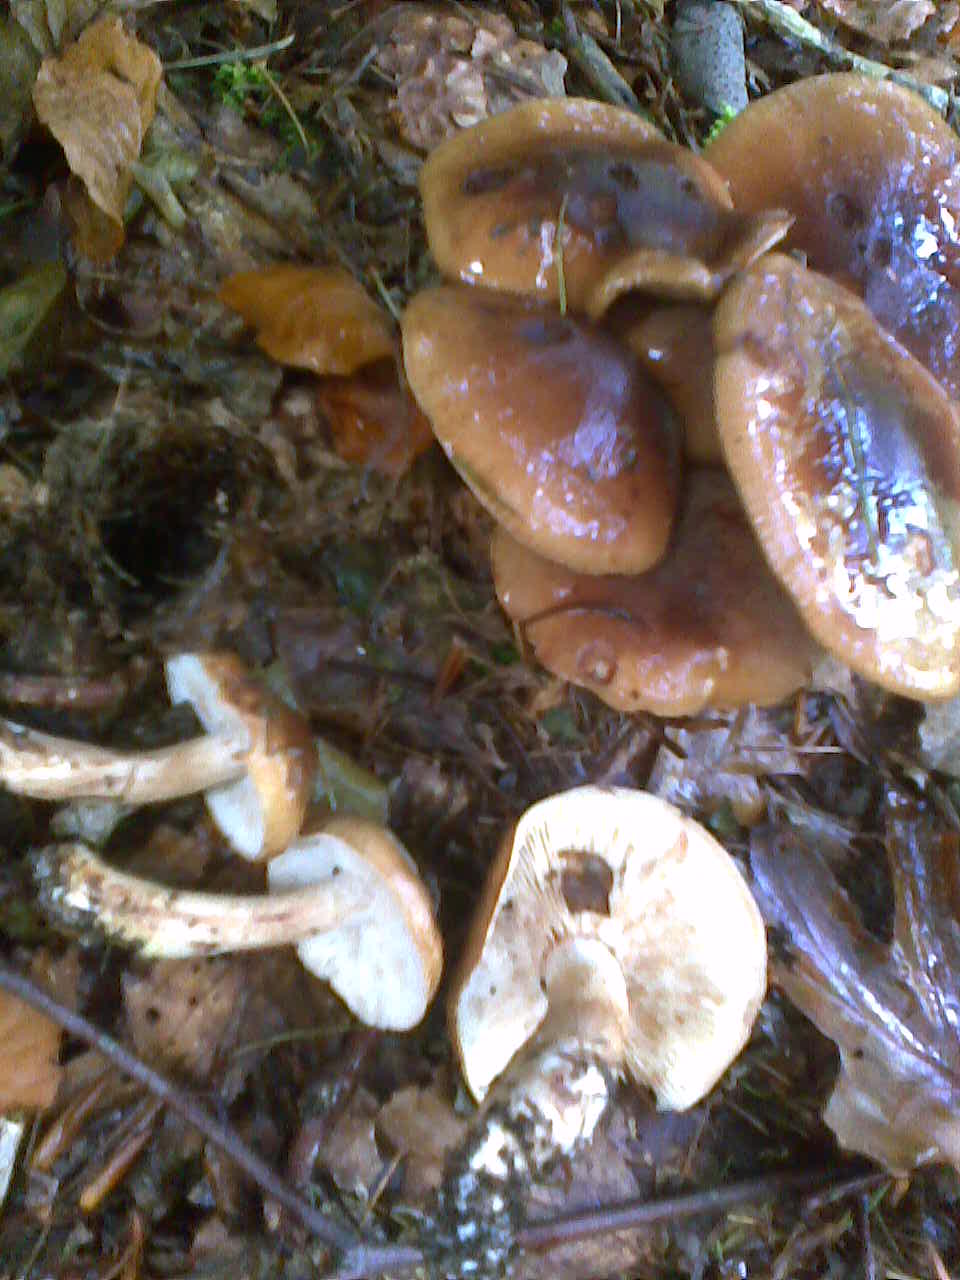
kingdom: Fungi
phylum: Basidiomycota
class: Agaricomycetes
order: Agaricales
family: Tricholomataceae
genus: Tricholoma
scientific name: Tricholoma ustale
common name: sveden ridderhat
